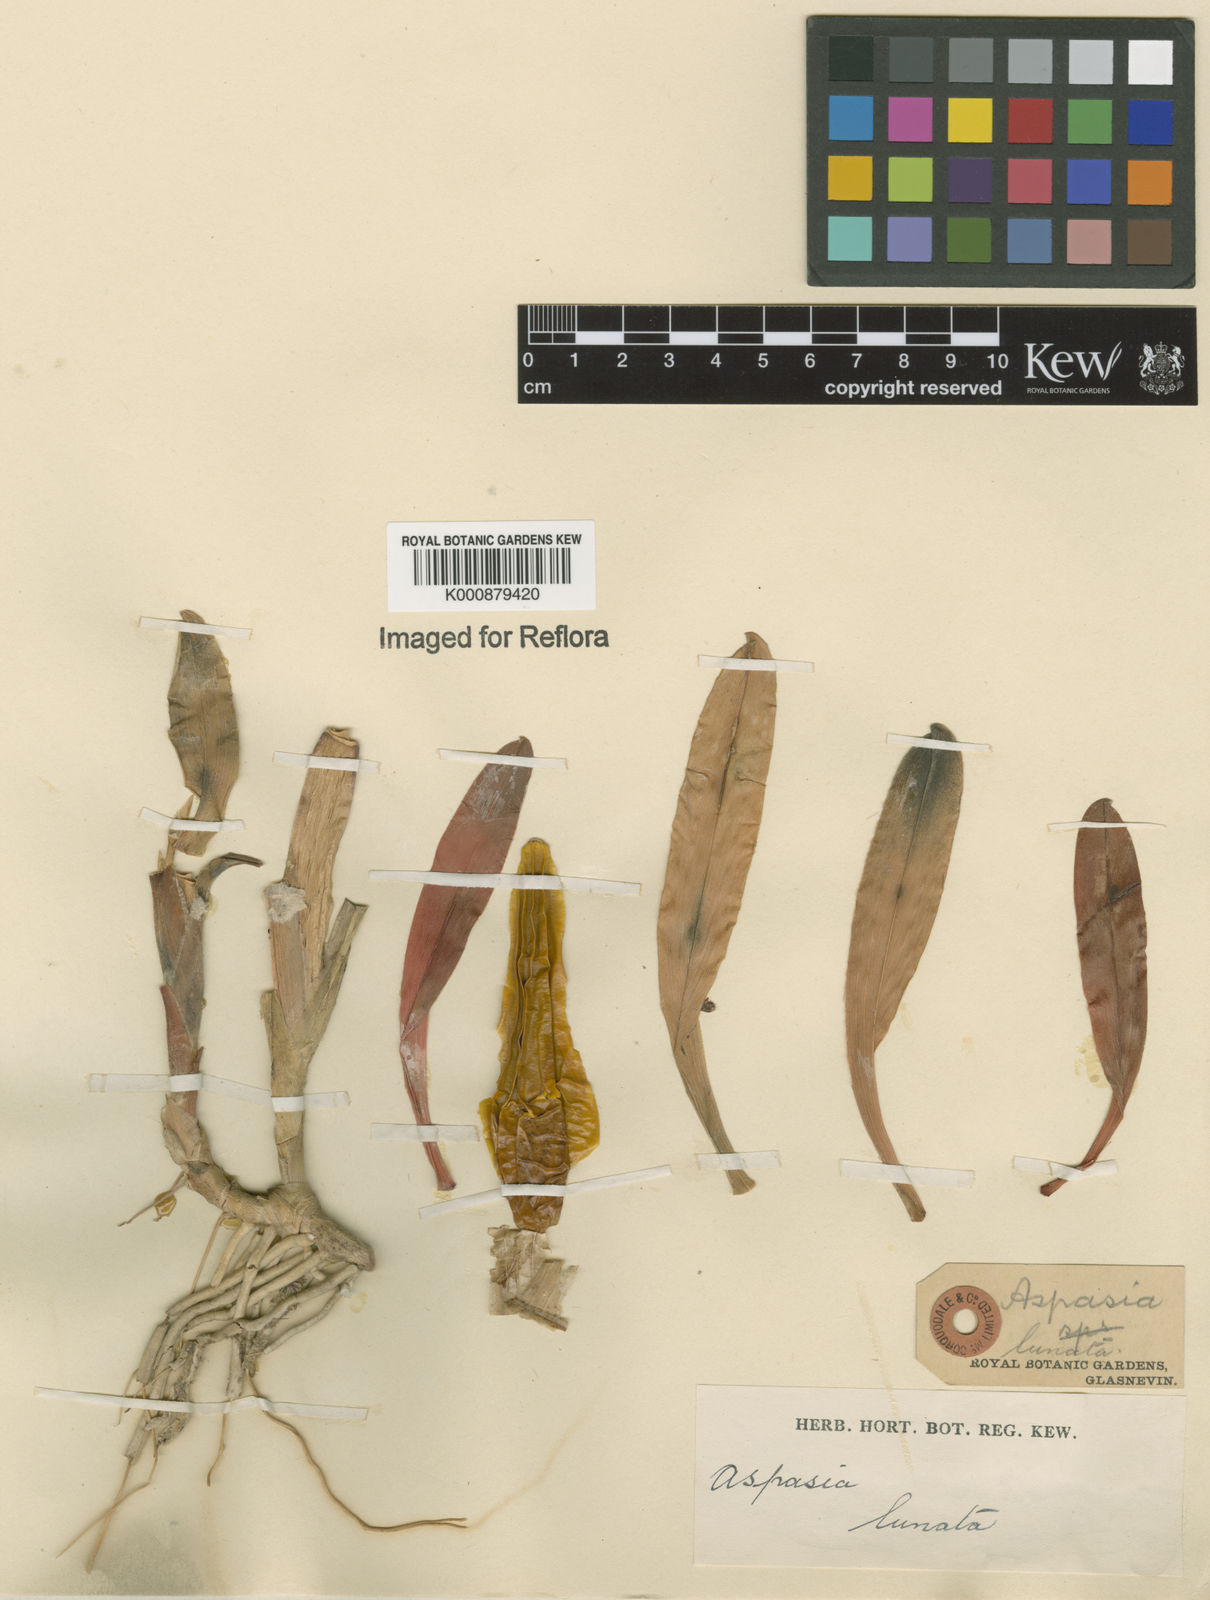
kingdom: Plantae
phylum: Tracheophyta
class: Liliopsida
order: Asparagales
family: Orchidaceae
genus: Aspasia
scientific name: Aspasia lunata
